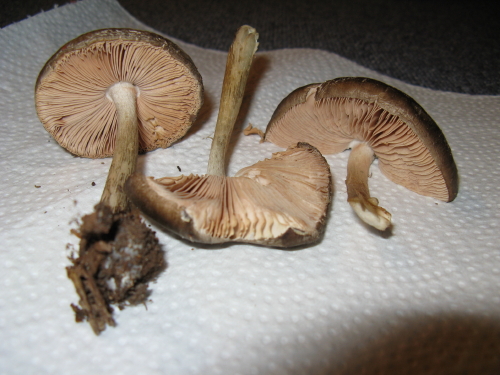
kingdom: Fungi
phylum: Basidiomycota
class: Agaricomycetes
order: Agaricales
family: Pluteaceae
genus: Pluteus
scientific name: Pluteus cervinus
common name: sodfarvet skærmhat
